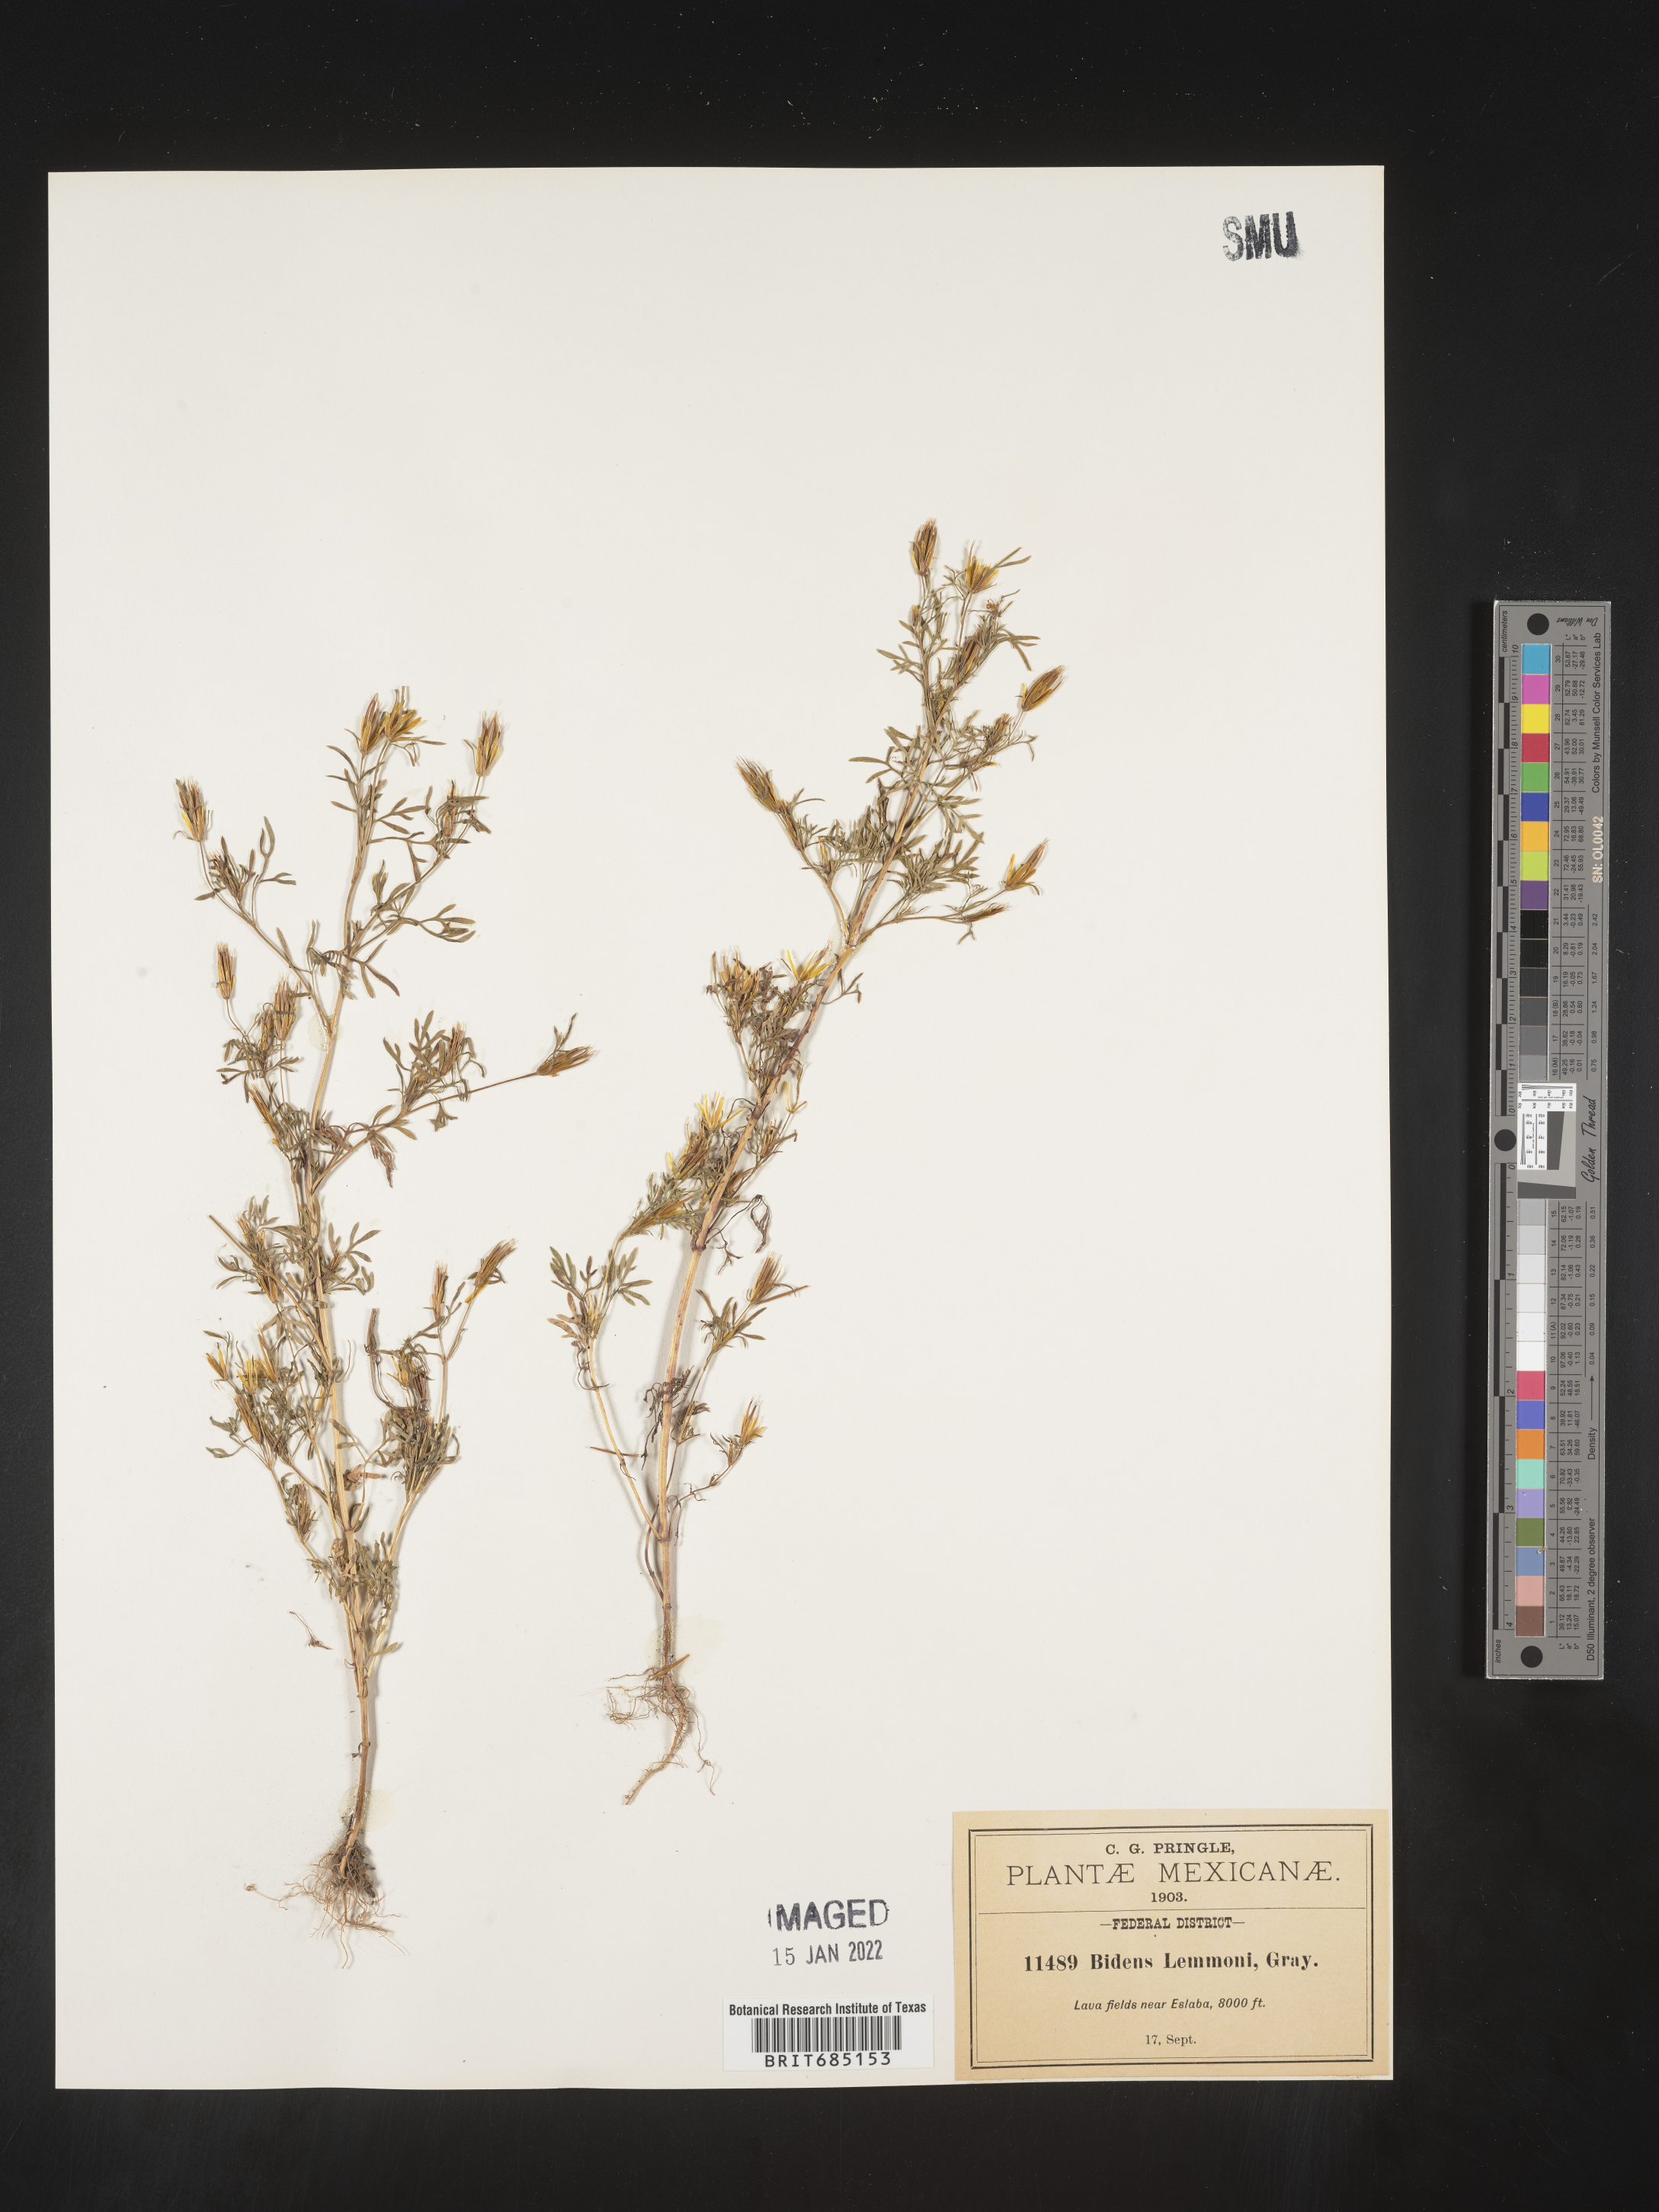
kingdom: Plantae
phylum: Tracheophyta
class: Magnoliopsida
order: Asterales
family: Asteraceae
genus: Bidens
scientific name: Bidens
